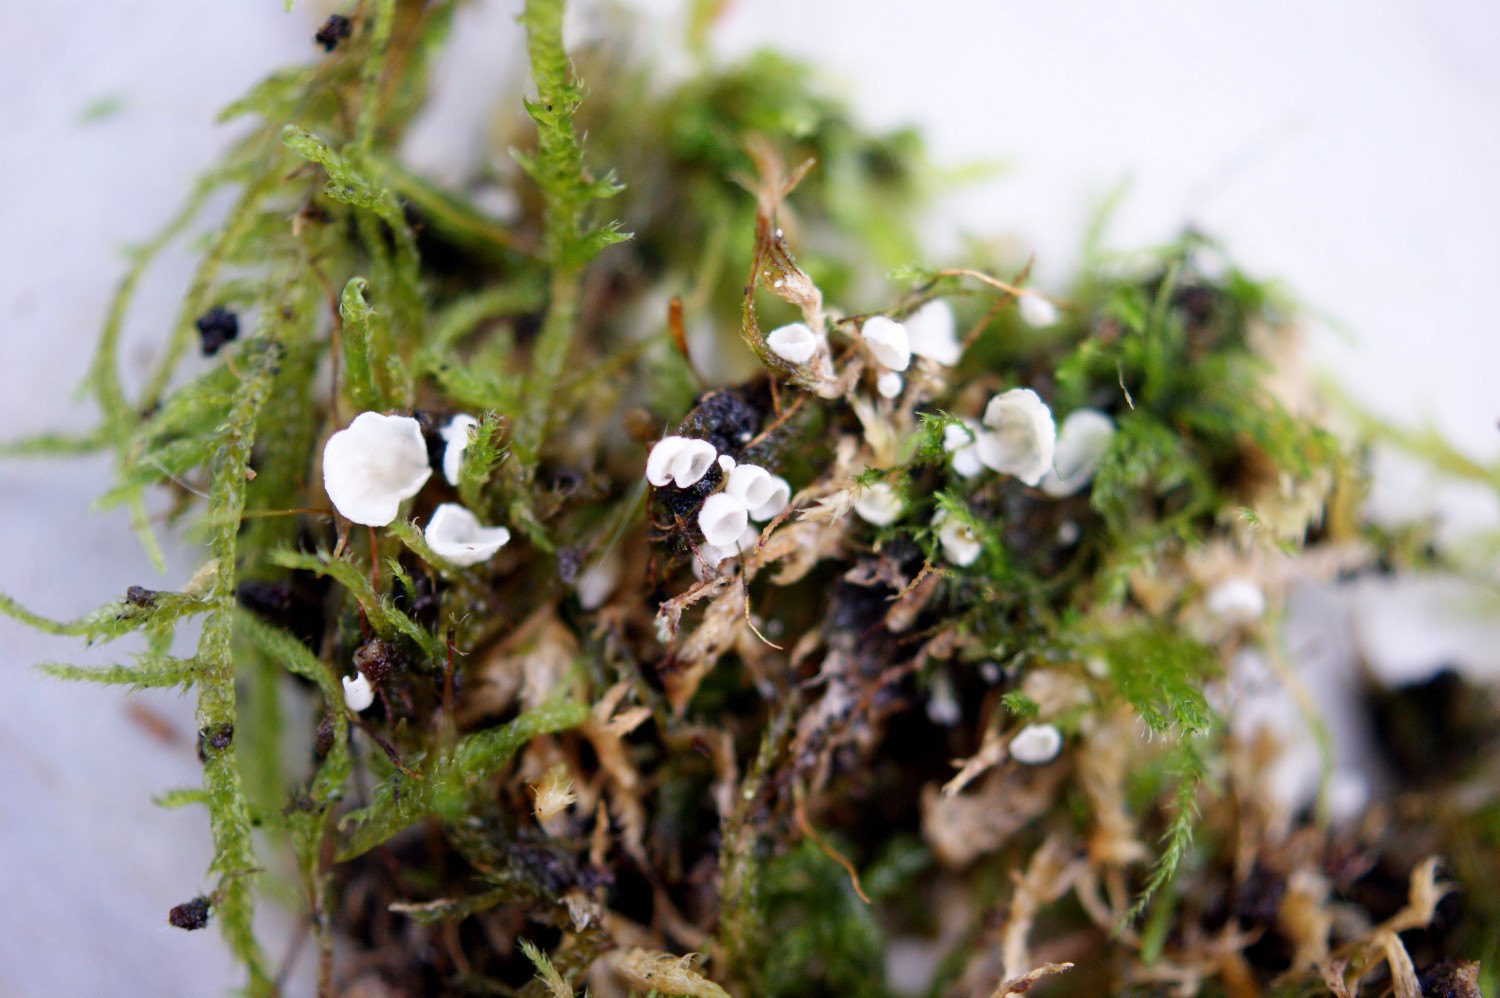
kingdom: Fungi
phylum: Basidiomycota
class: Agaricomycetes
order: Agaricales
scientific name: Agaricales
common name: champignonordenen
